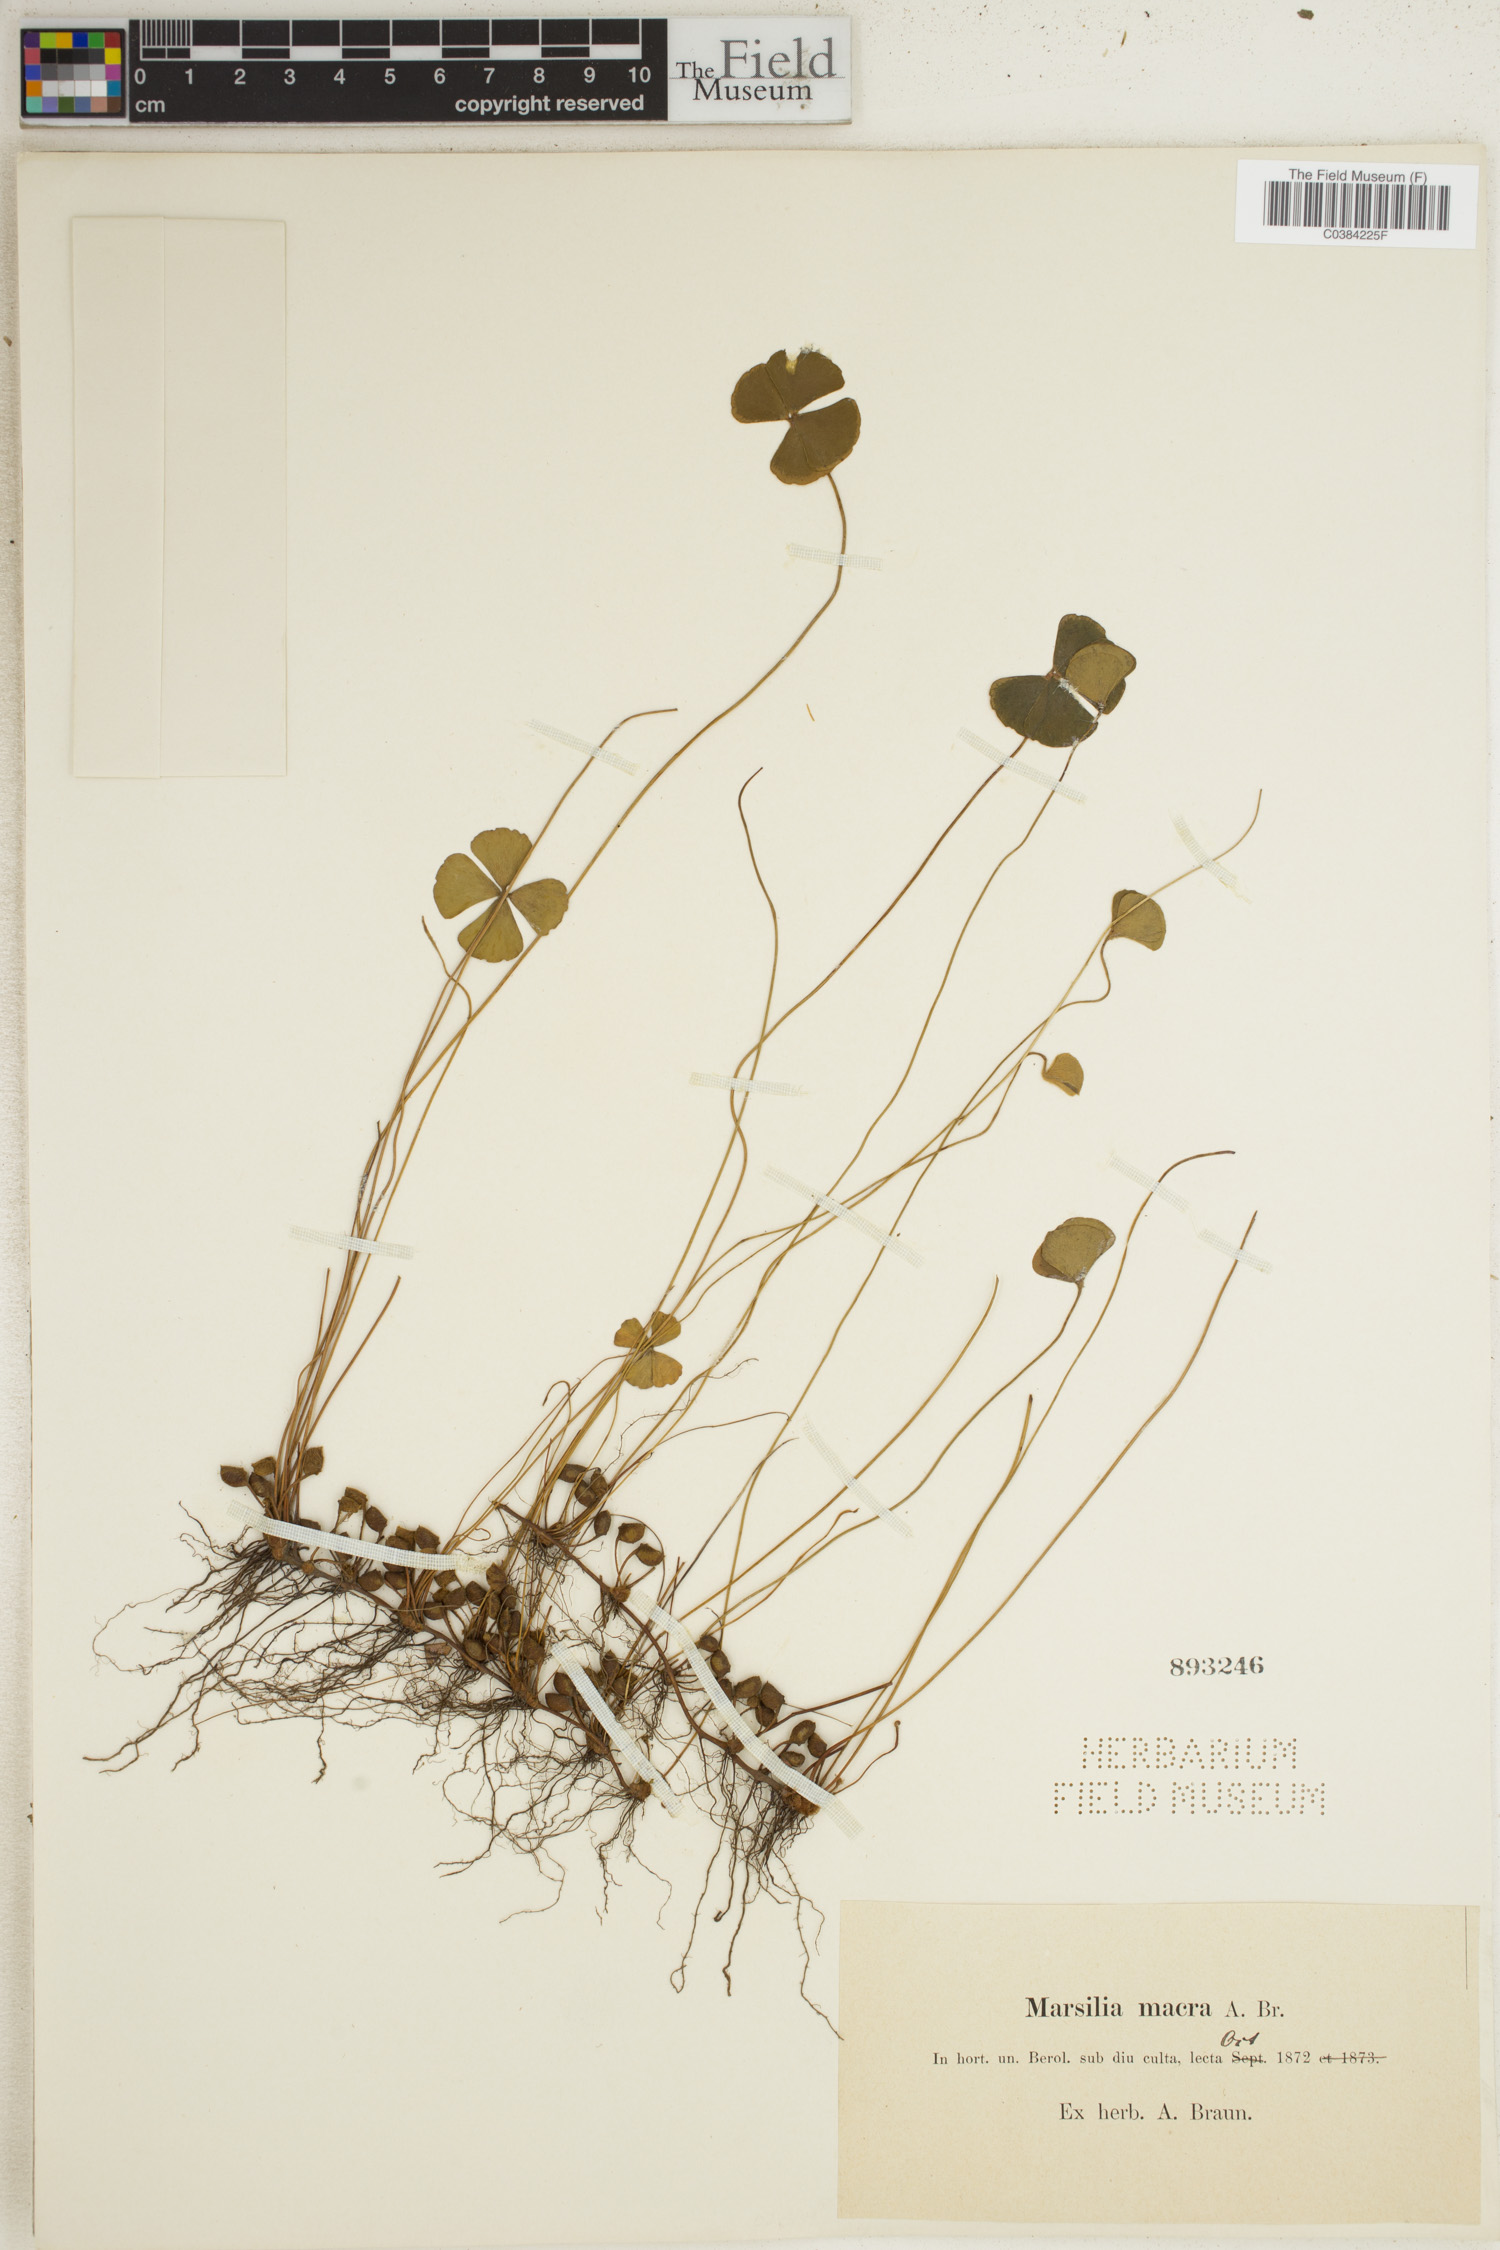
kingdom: Plantae
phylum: Tracheophyta
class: Polypodiopsida
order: Salviniales
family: Marsileaceae
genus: Marsilea
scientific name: Marsilea drummondii
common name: Nardoo
